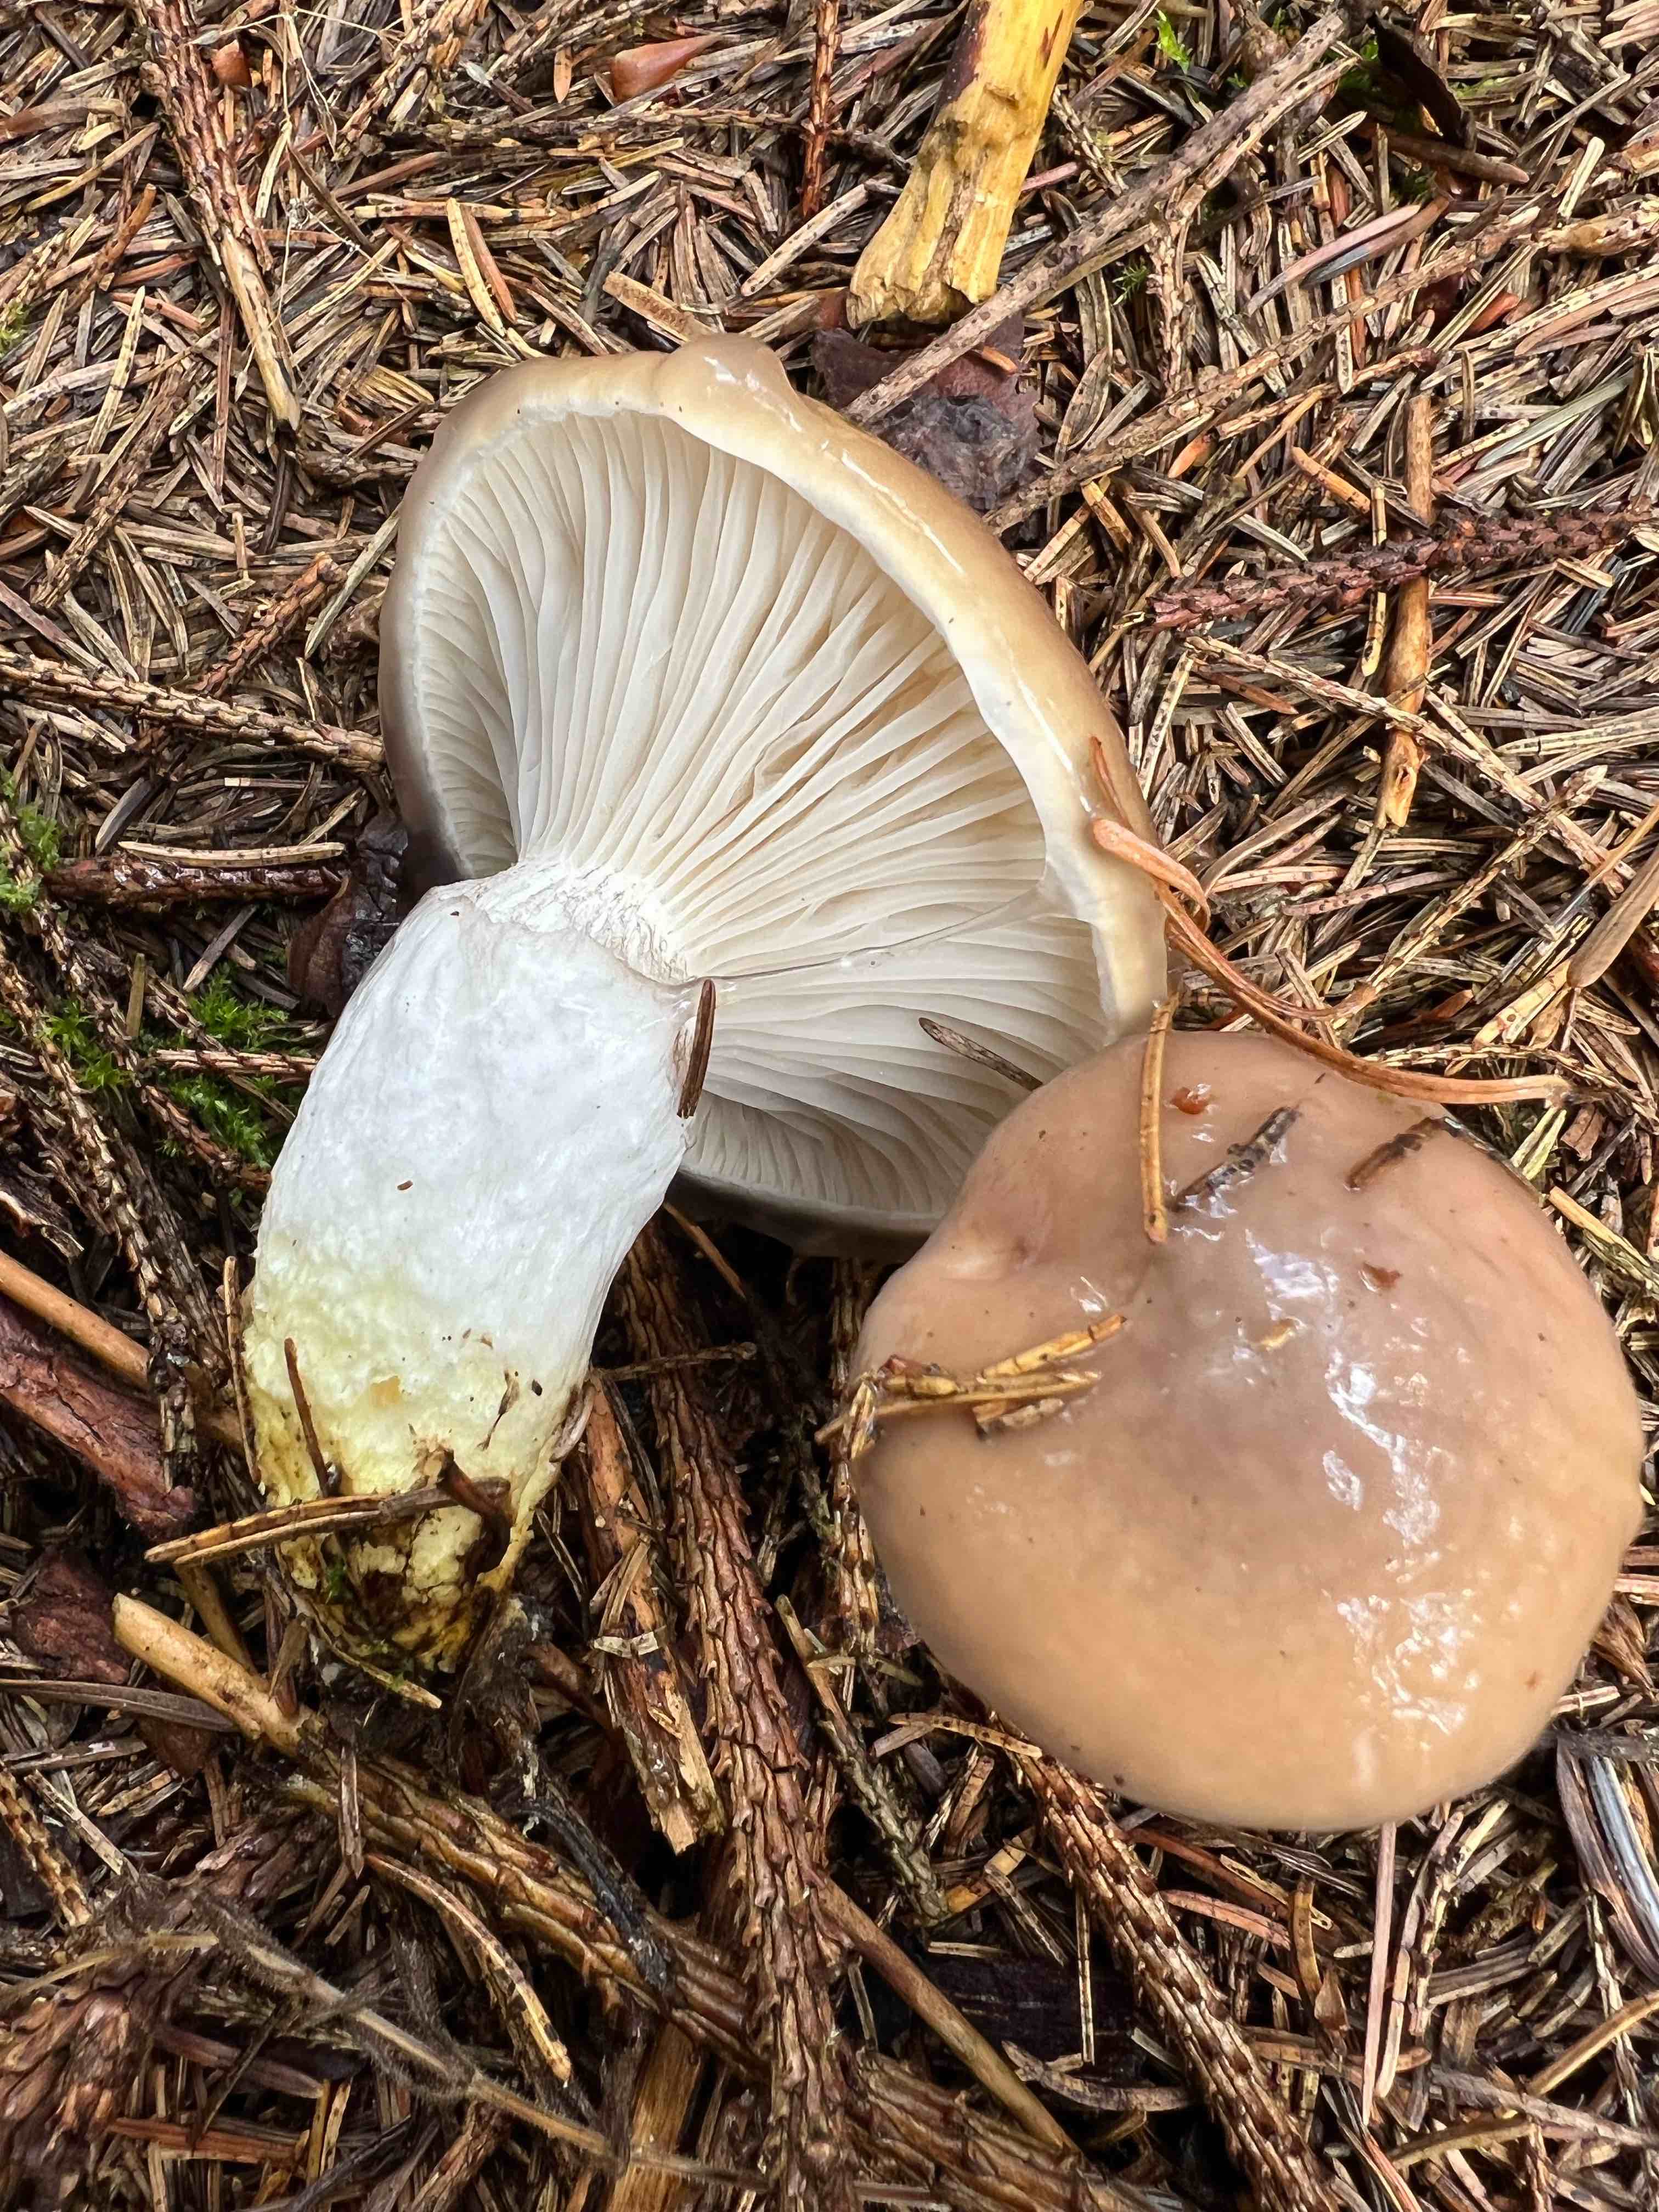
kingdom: Fungi
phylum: Basidiomycota
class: Agaricomycetes
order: Boletales
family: Gomphidiaceae
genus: Gomphidius
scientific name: Gomphidius glutinosus
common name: grå slimslør
